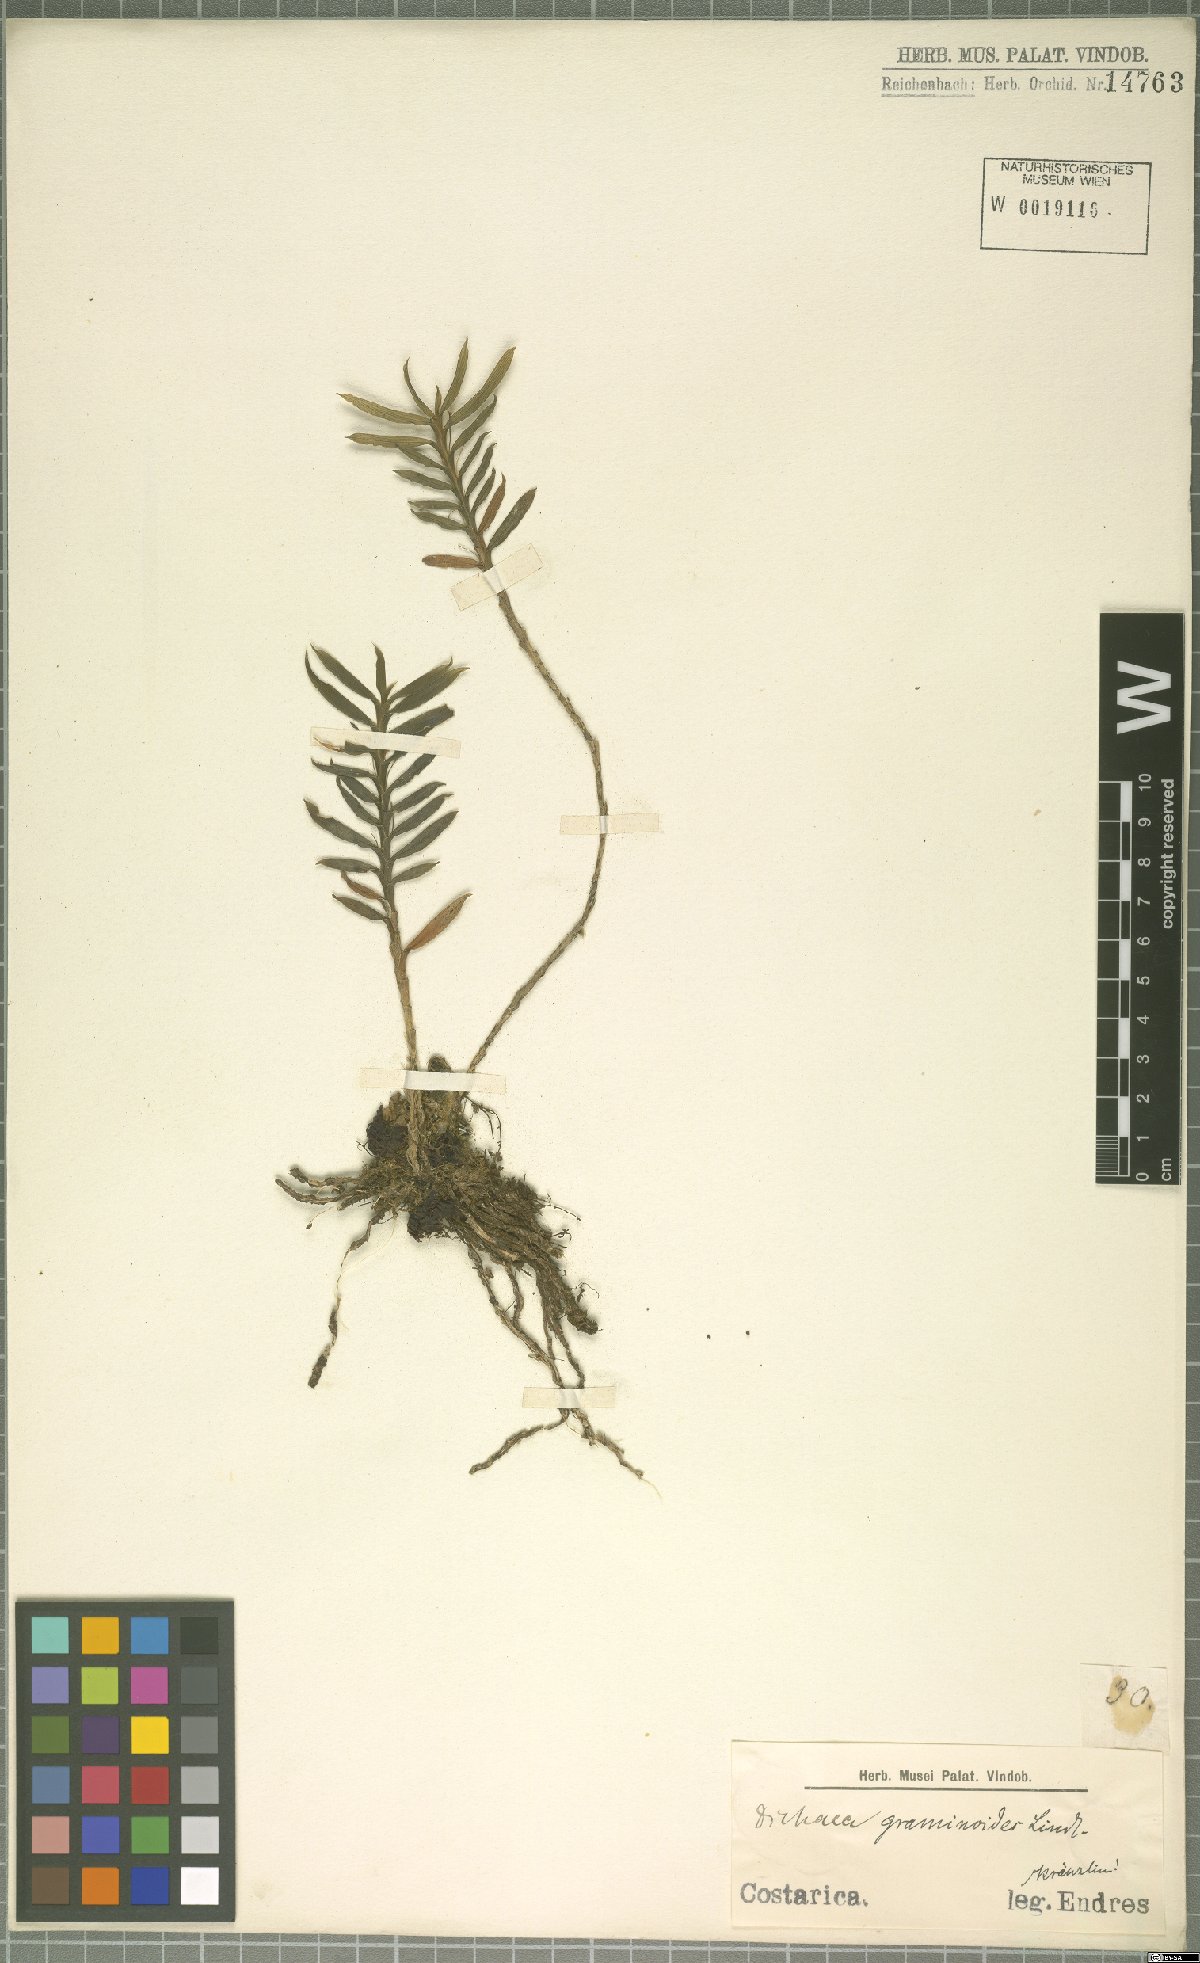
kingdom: Plantae
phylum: Tracheophyta
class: Liliopsida
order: Asparagales
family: Orchidaceae
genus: Dichaea
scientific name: Dichaea graminoides
